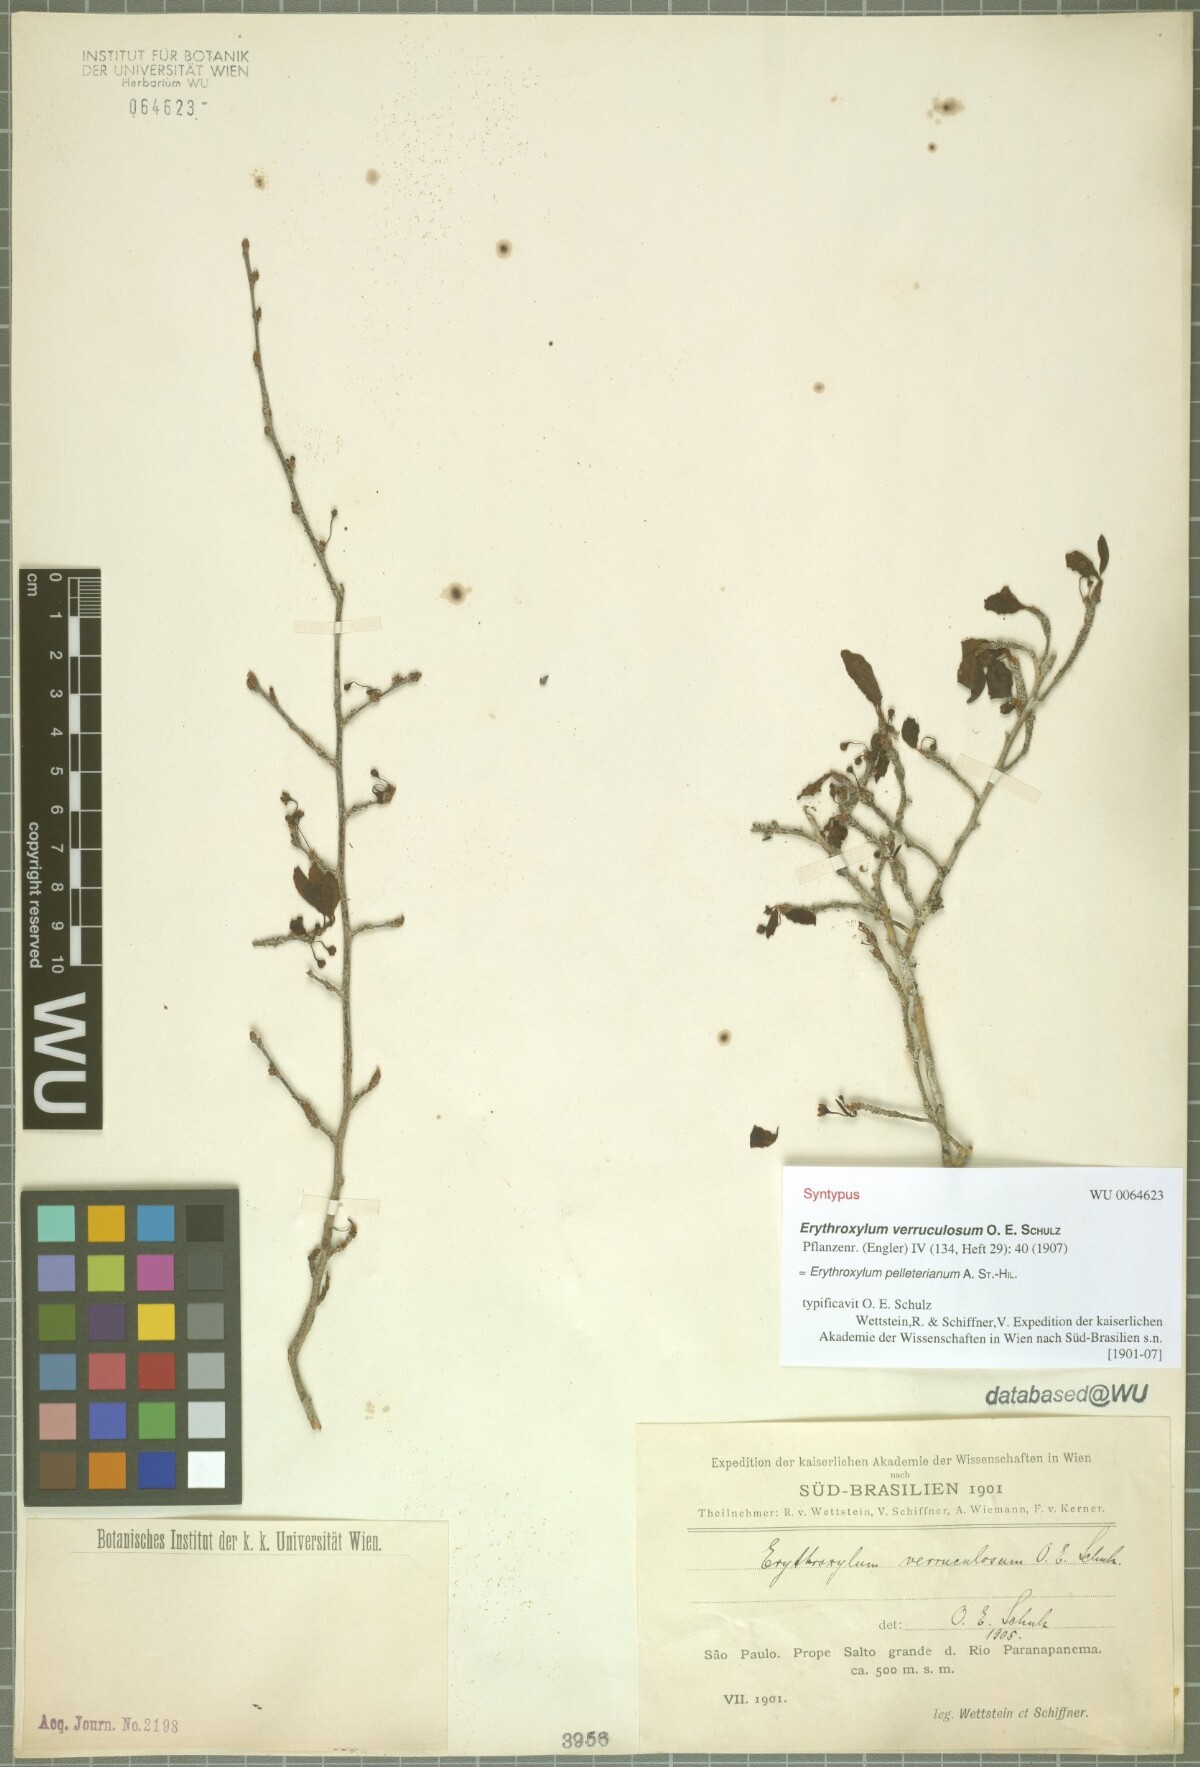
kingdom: Plantae
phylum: Tracheophyta
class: Magnoliopsida
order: Malpighiales
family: Erythroxylaceae
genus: Erythroxylum
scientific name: Erythroxylum pelleterianum
